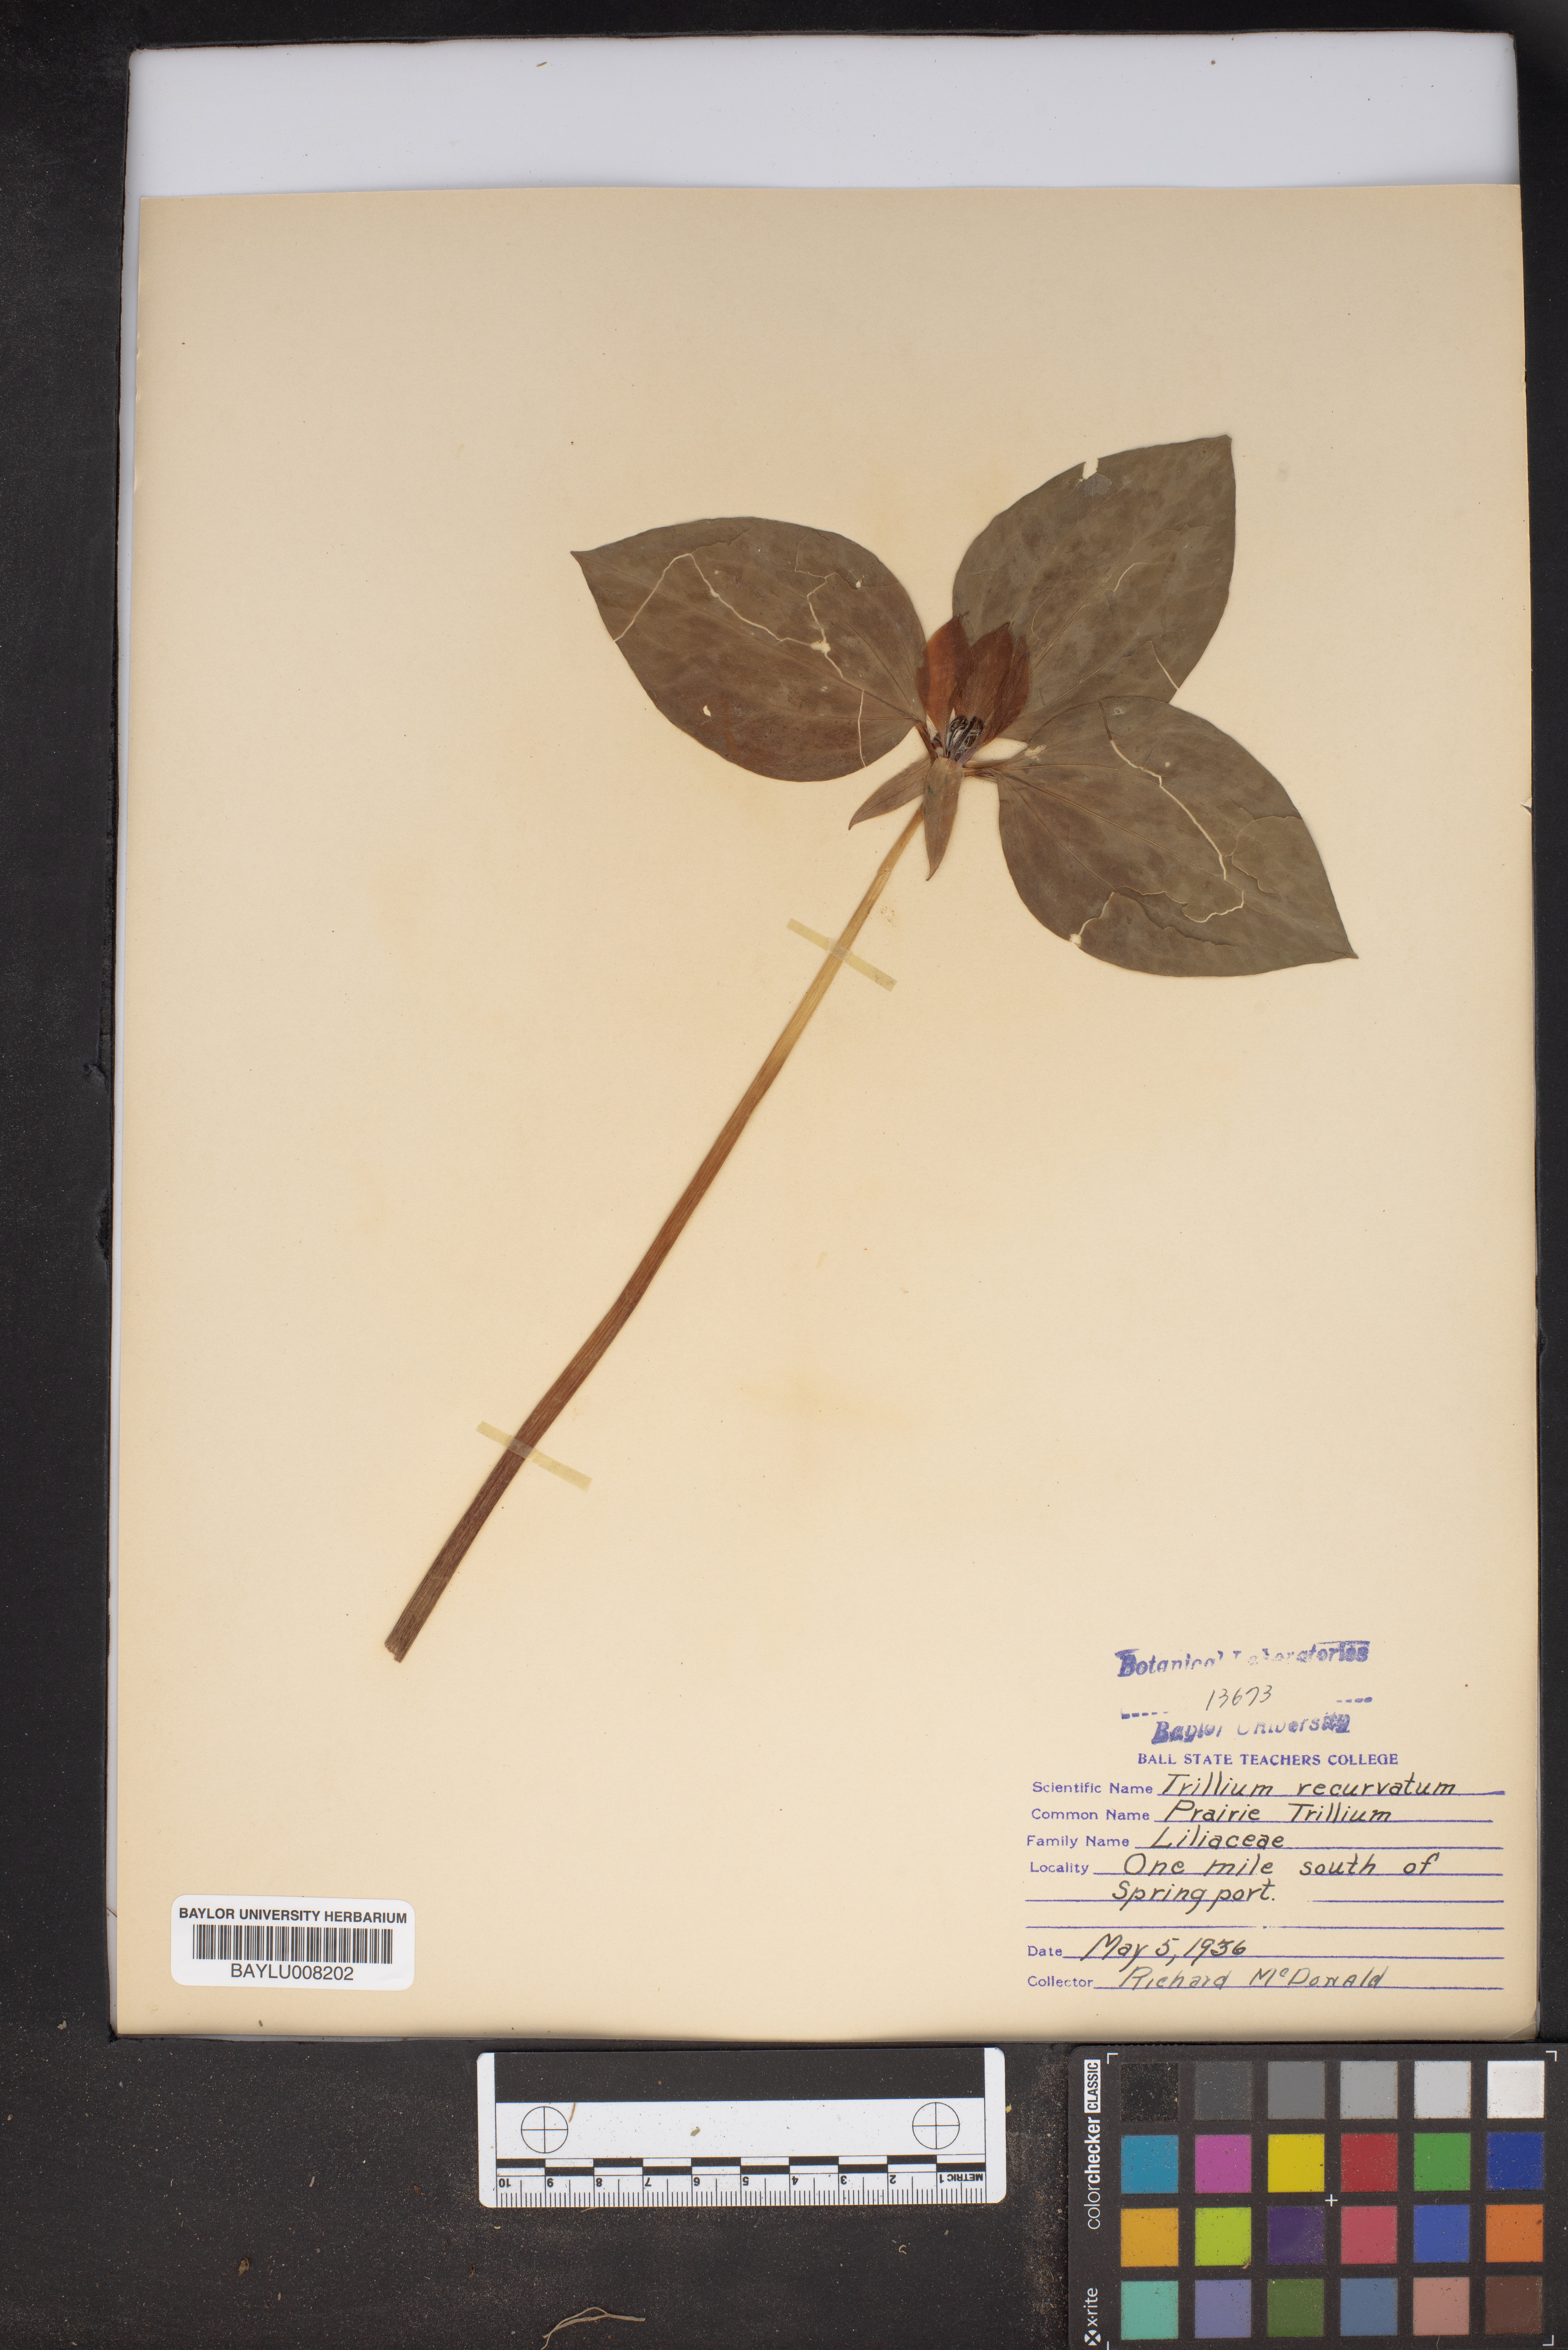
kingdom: Plantae
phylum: Tracheophyta
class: Liliopsida
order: Liliales
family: Melanthiaceae
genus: Trillium
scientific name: Trillium recurvatum
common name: Bloody butcher
